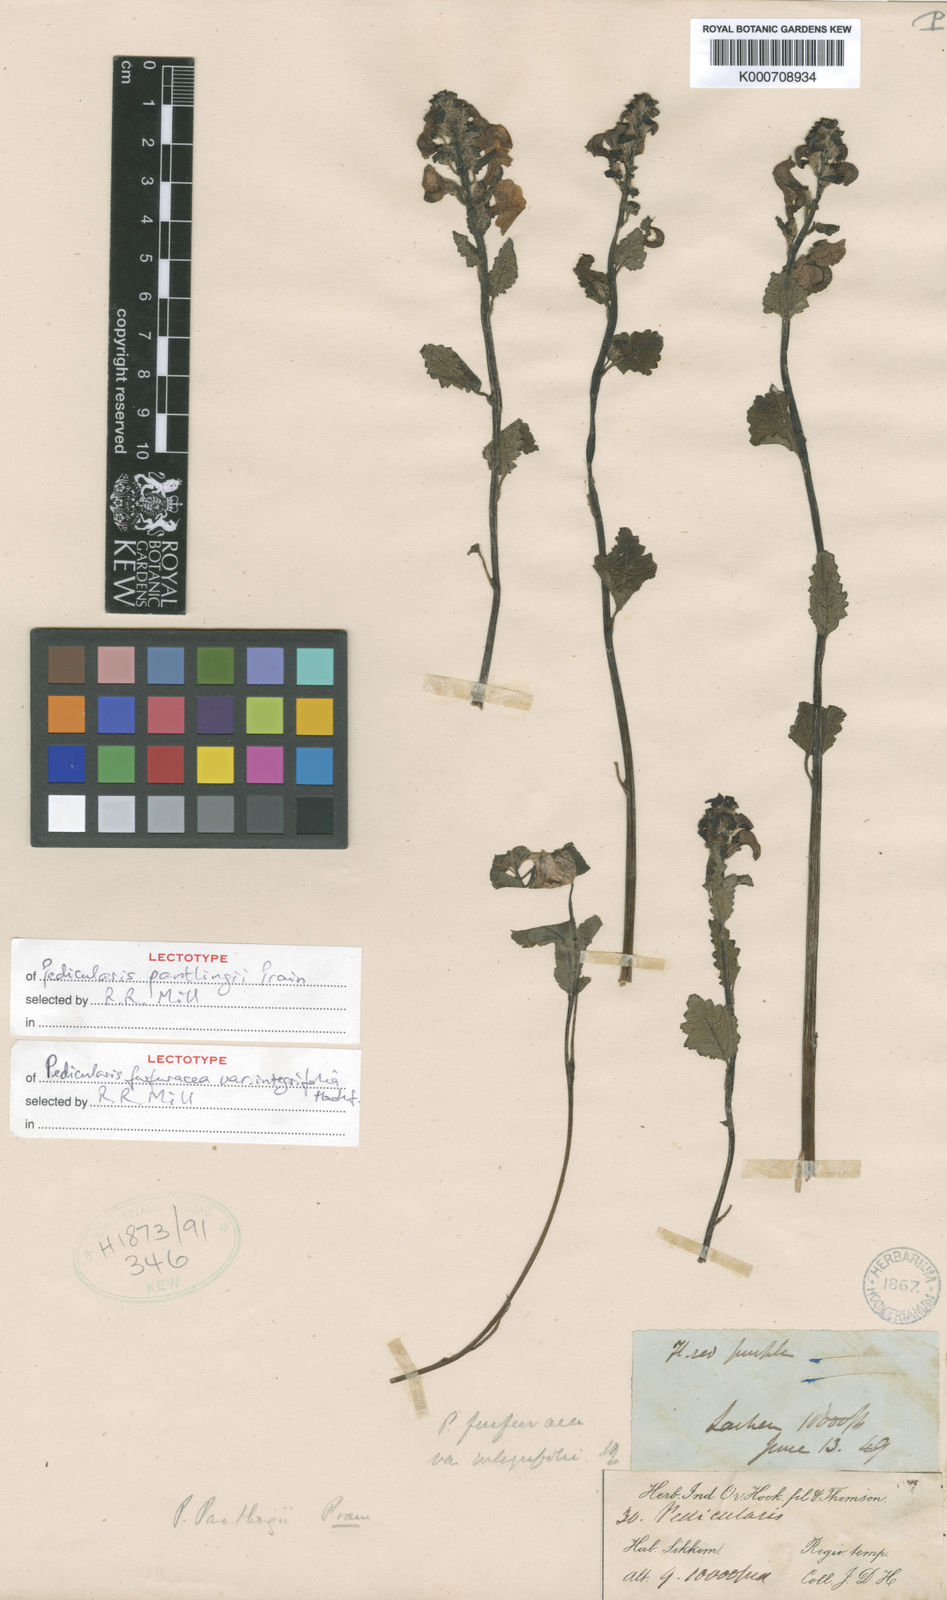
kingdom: Plantae
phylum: Tracheophyta
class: Magnoliopsida
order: Lamiales
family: Orobanchaceae
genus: Pedicularis
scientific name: Pedicularis pantlingii
